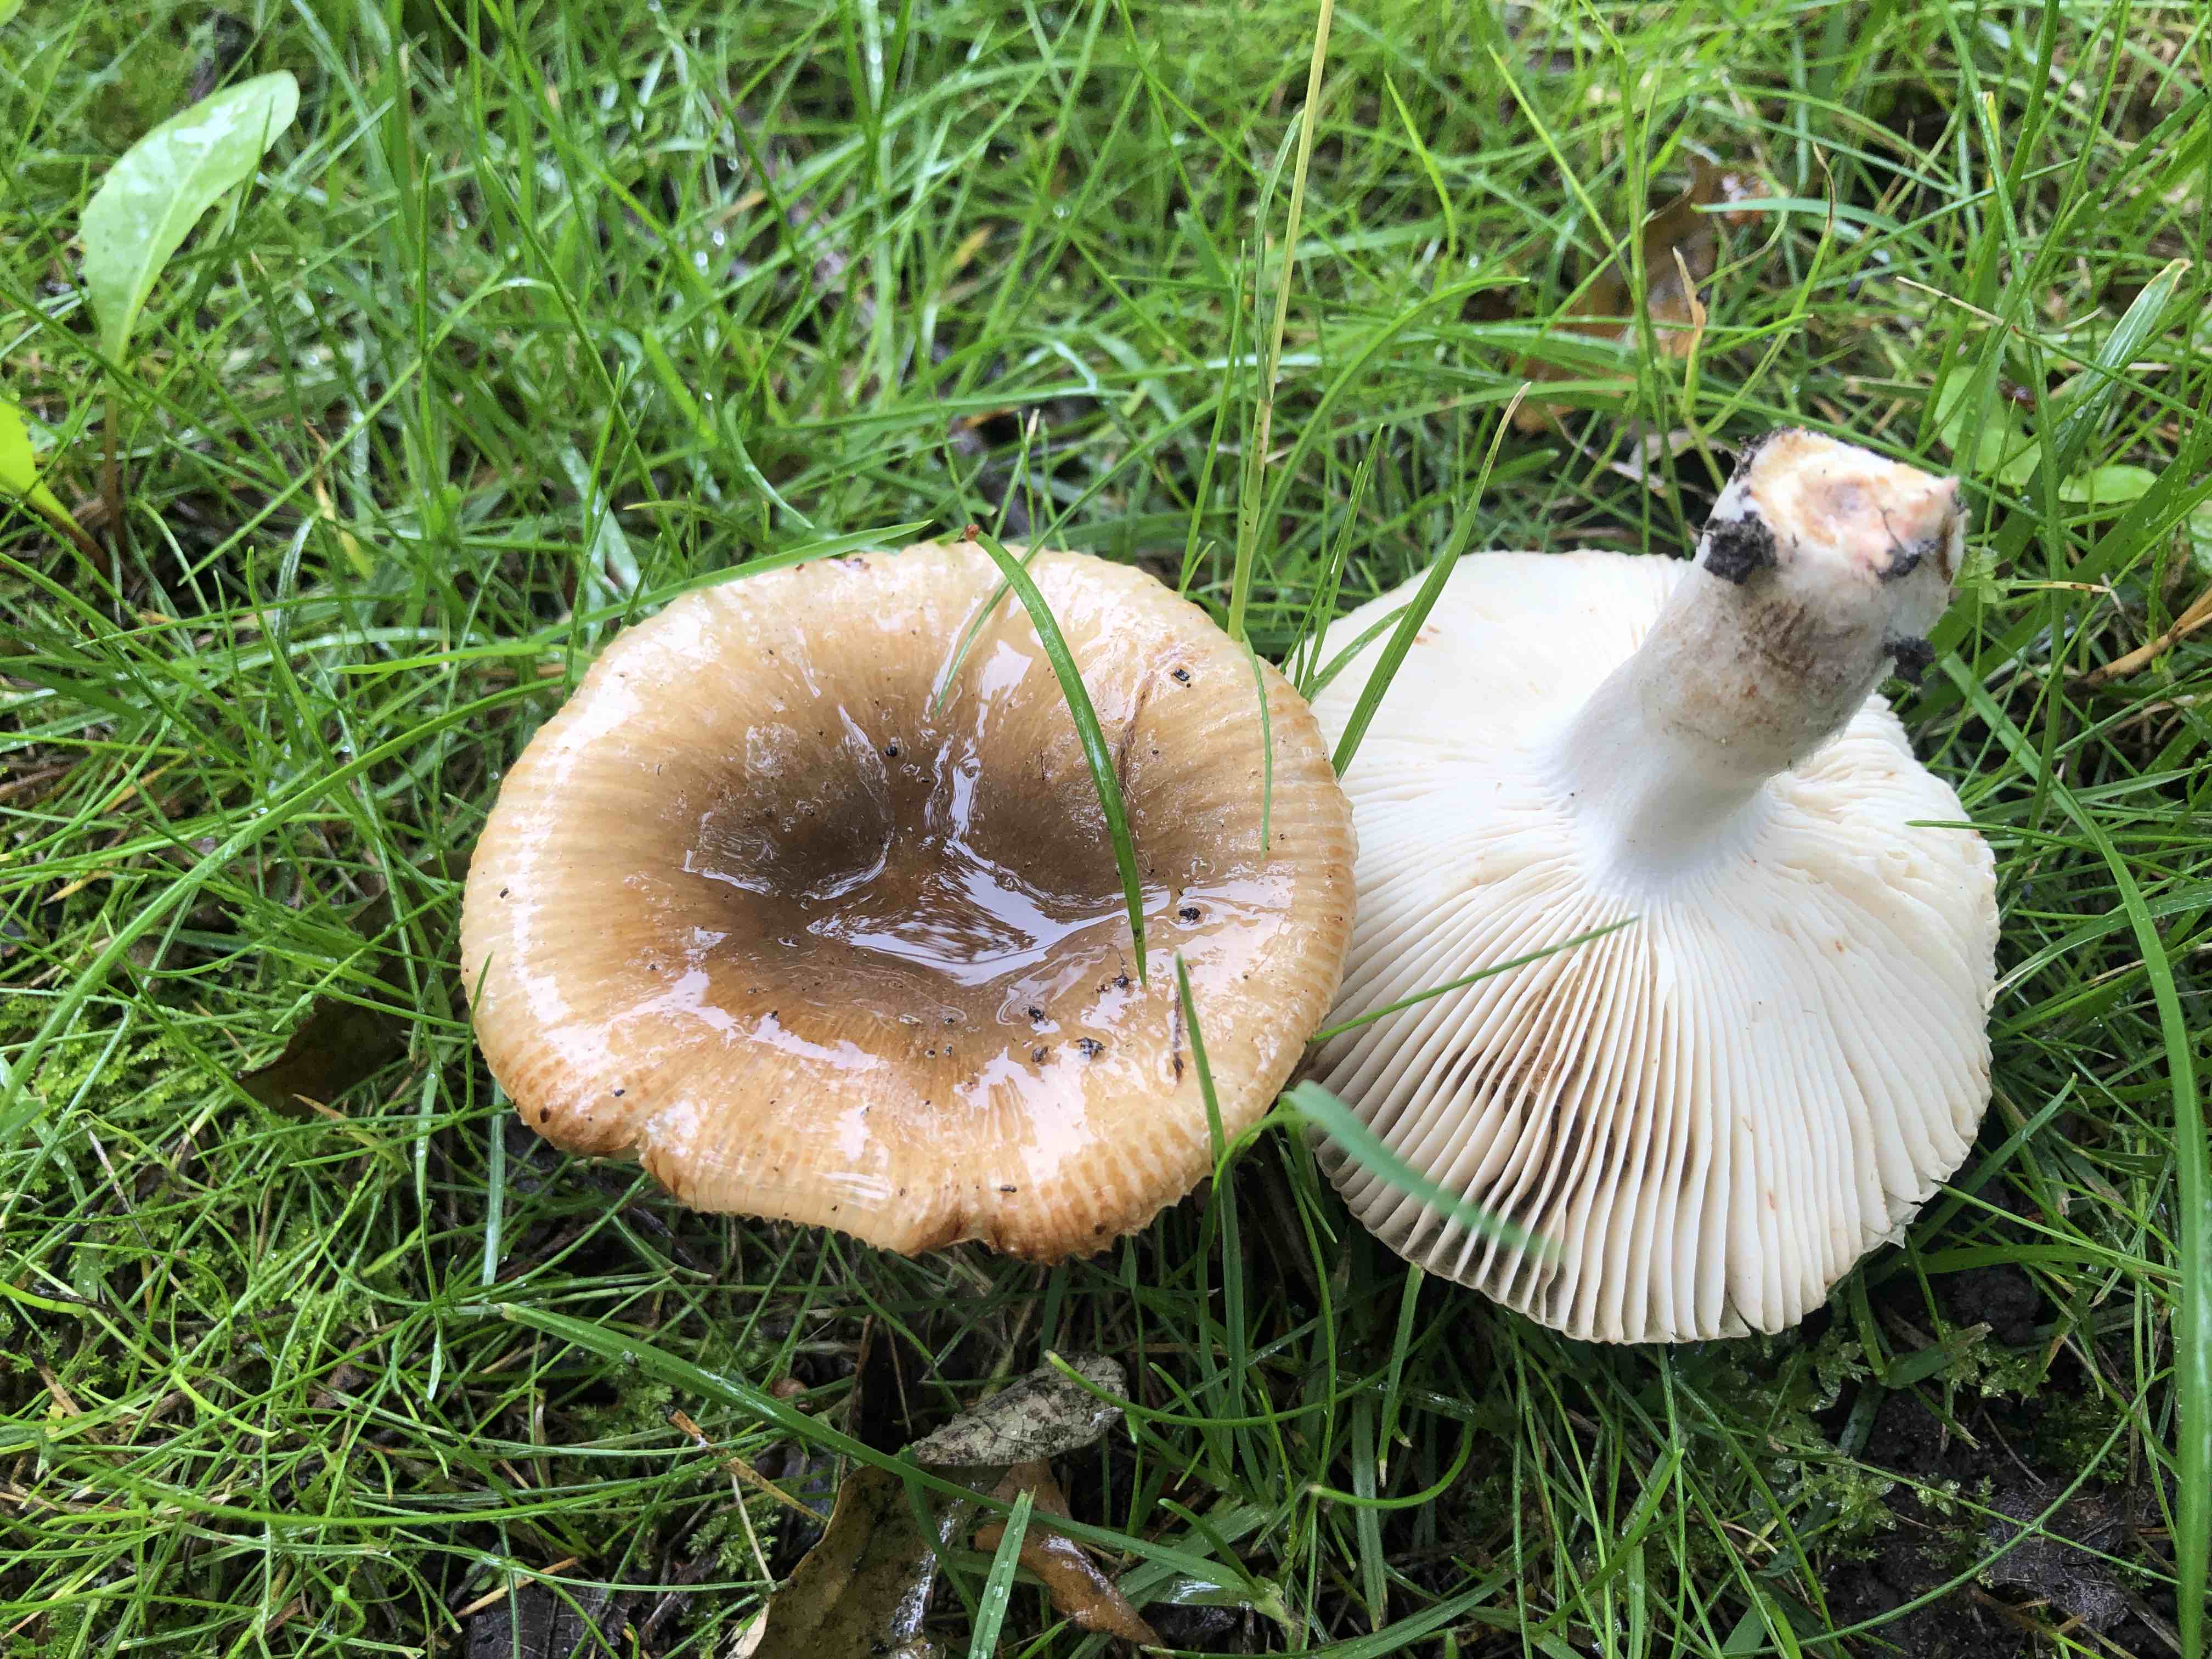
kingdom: Fungi
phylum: Basidiomycota
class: Agaricomycetes
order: Russulales
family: Russulaceae
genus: Russula
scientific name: Russula recondita
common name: mild kam-skørhat
